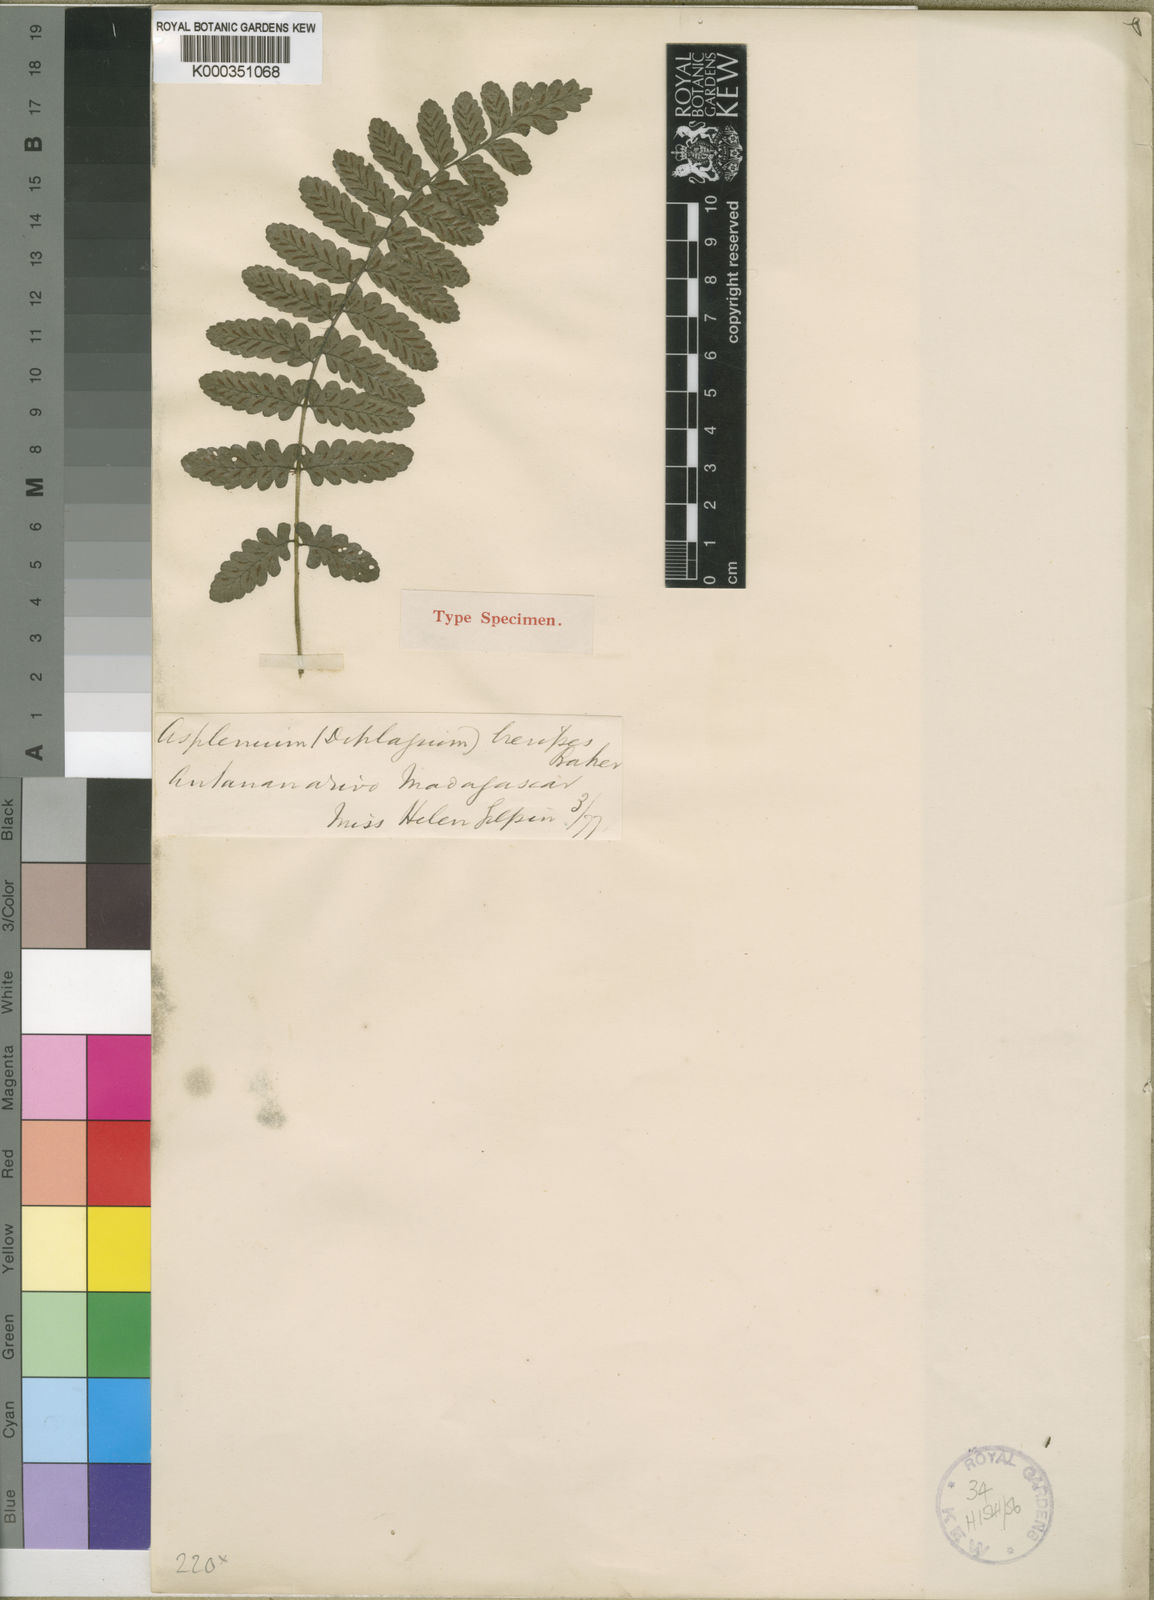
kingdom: Plantae
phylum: Tracheophyta
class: Polypodiopsida
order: Polypodiales
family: Athyriaceae
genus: Diplazium
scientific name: Diplazium brevipes
